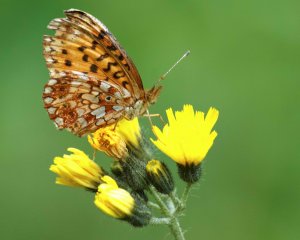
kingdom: Animalia
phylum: Arthropoda
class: Insecta
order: Lepidoptera
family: Nymphalidae
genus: Boloria
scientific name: Boloria selene
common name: Silver-bordered Fritillary
